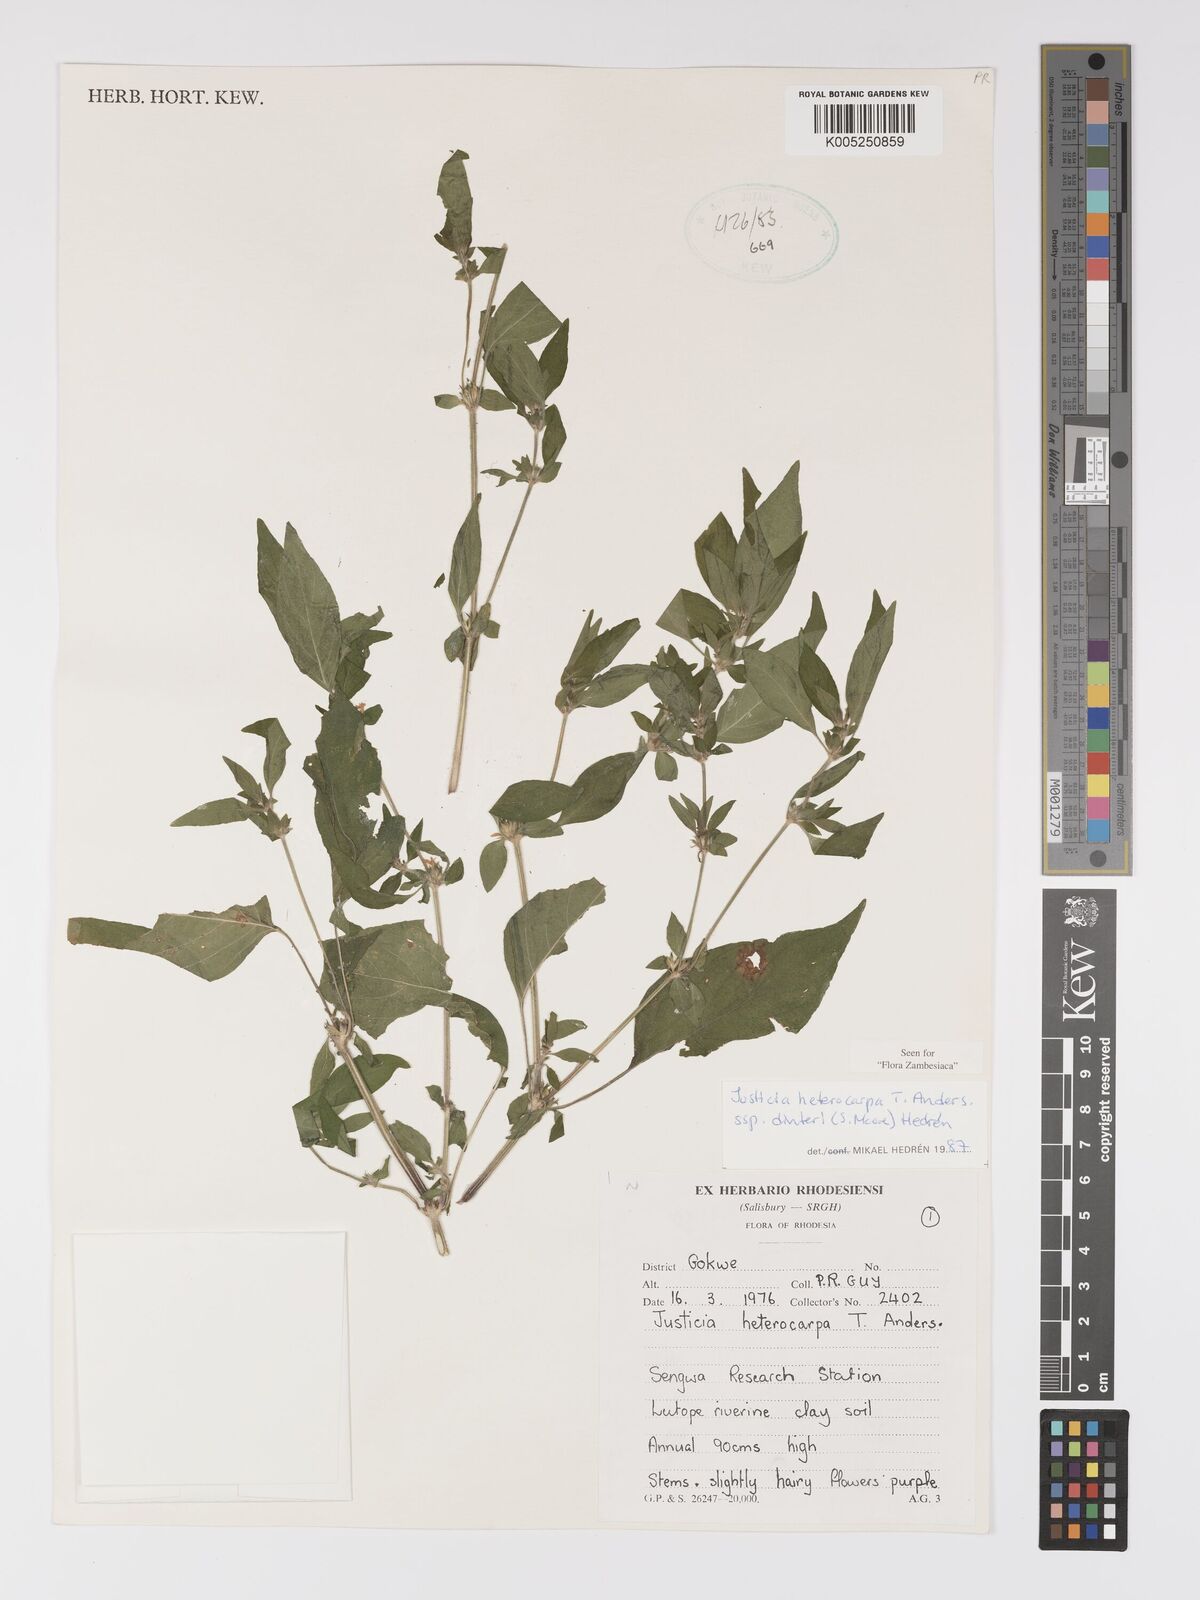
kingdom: Plantae
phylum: Tracheophyta
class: Magnoliopsida
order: Lamiales
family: Acanthaceae
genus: Justicia
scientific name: Justicia heterocarpa
